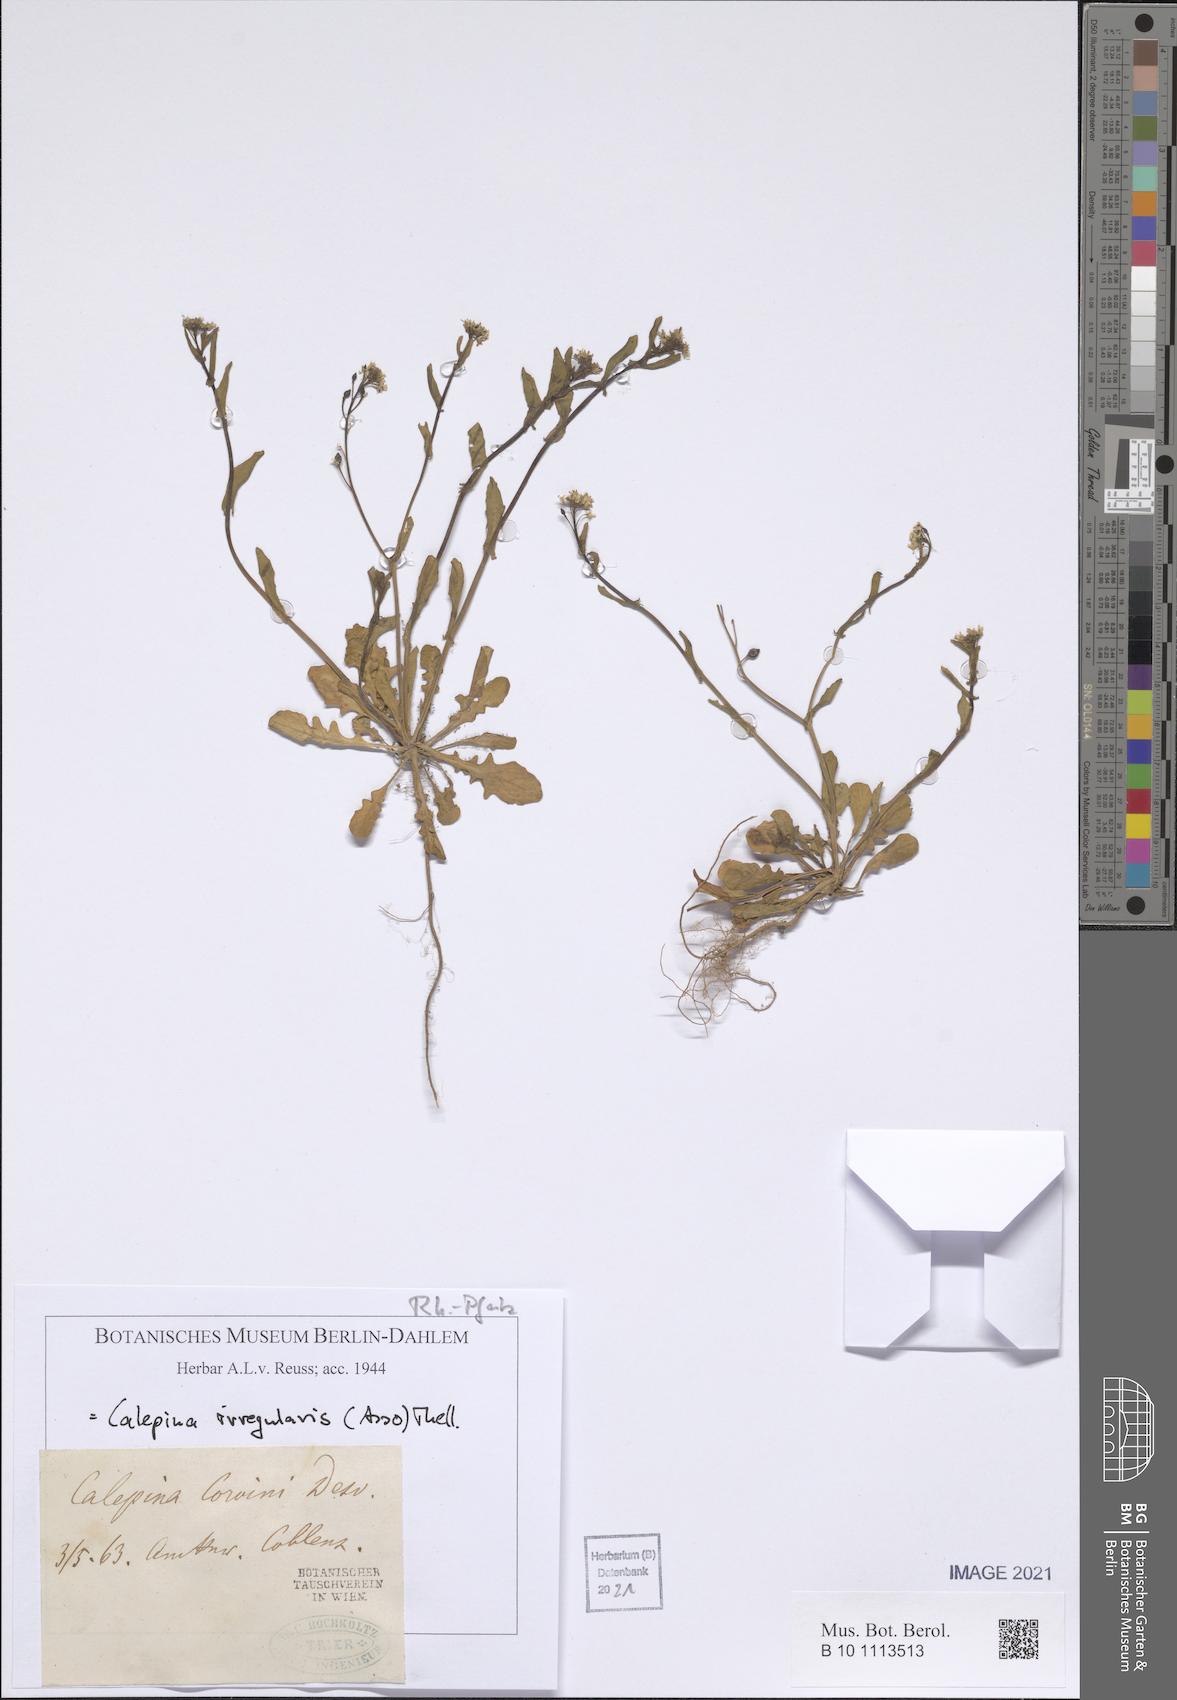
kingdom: Plantae
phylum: Tracheophyta
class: Magnoliopsida
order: Brassicales
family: Brassicaceae
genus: Calepina
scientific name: Calepina irregularis
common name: White ballmustard
